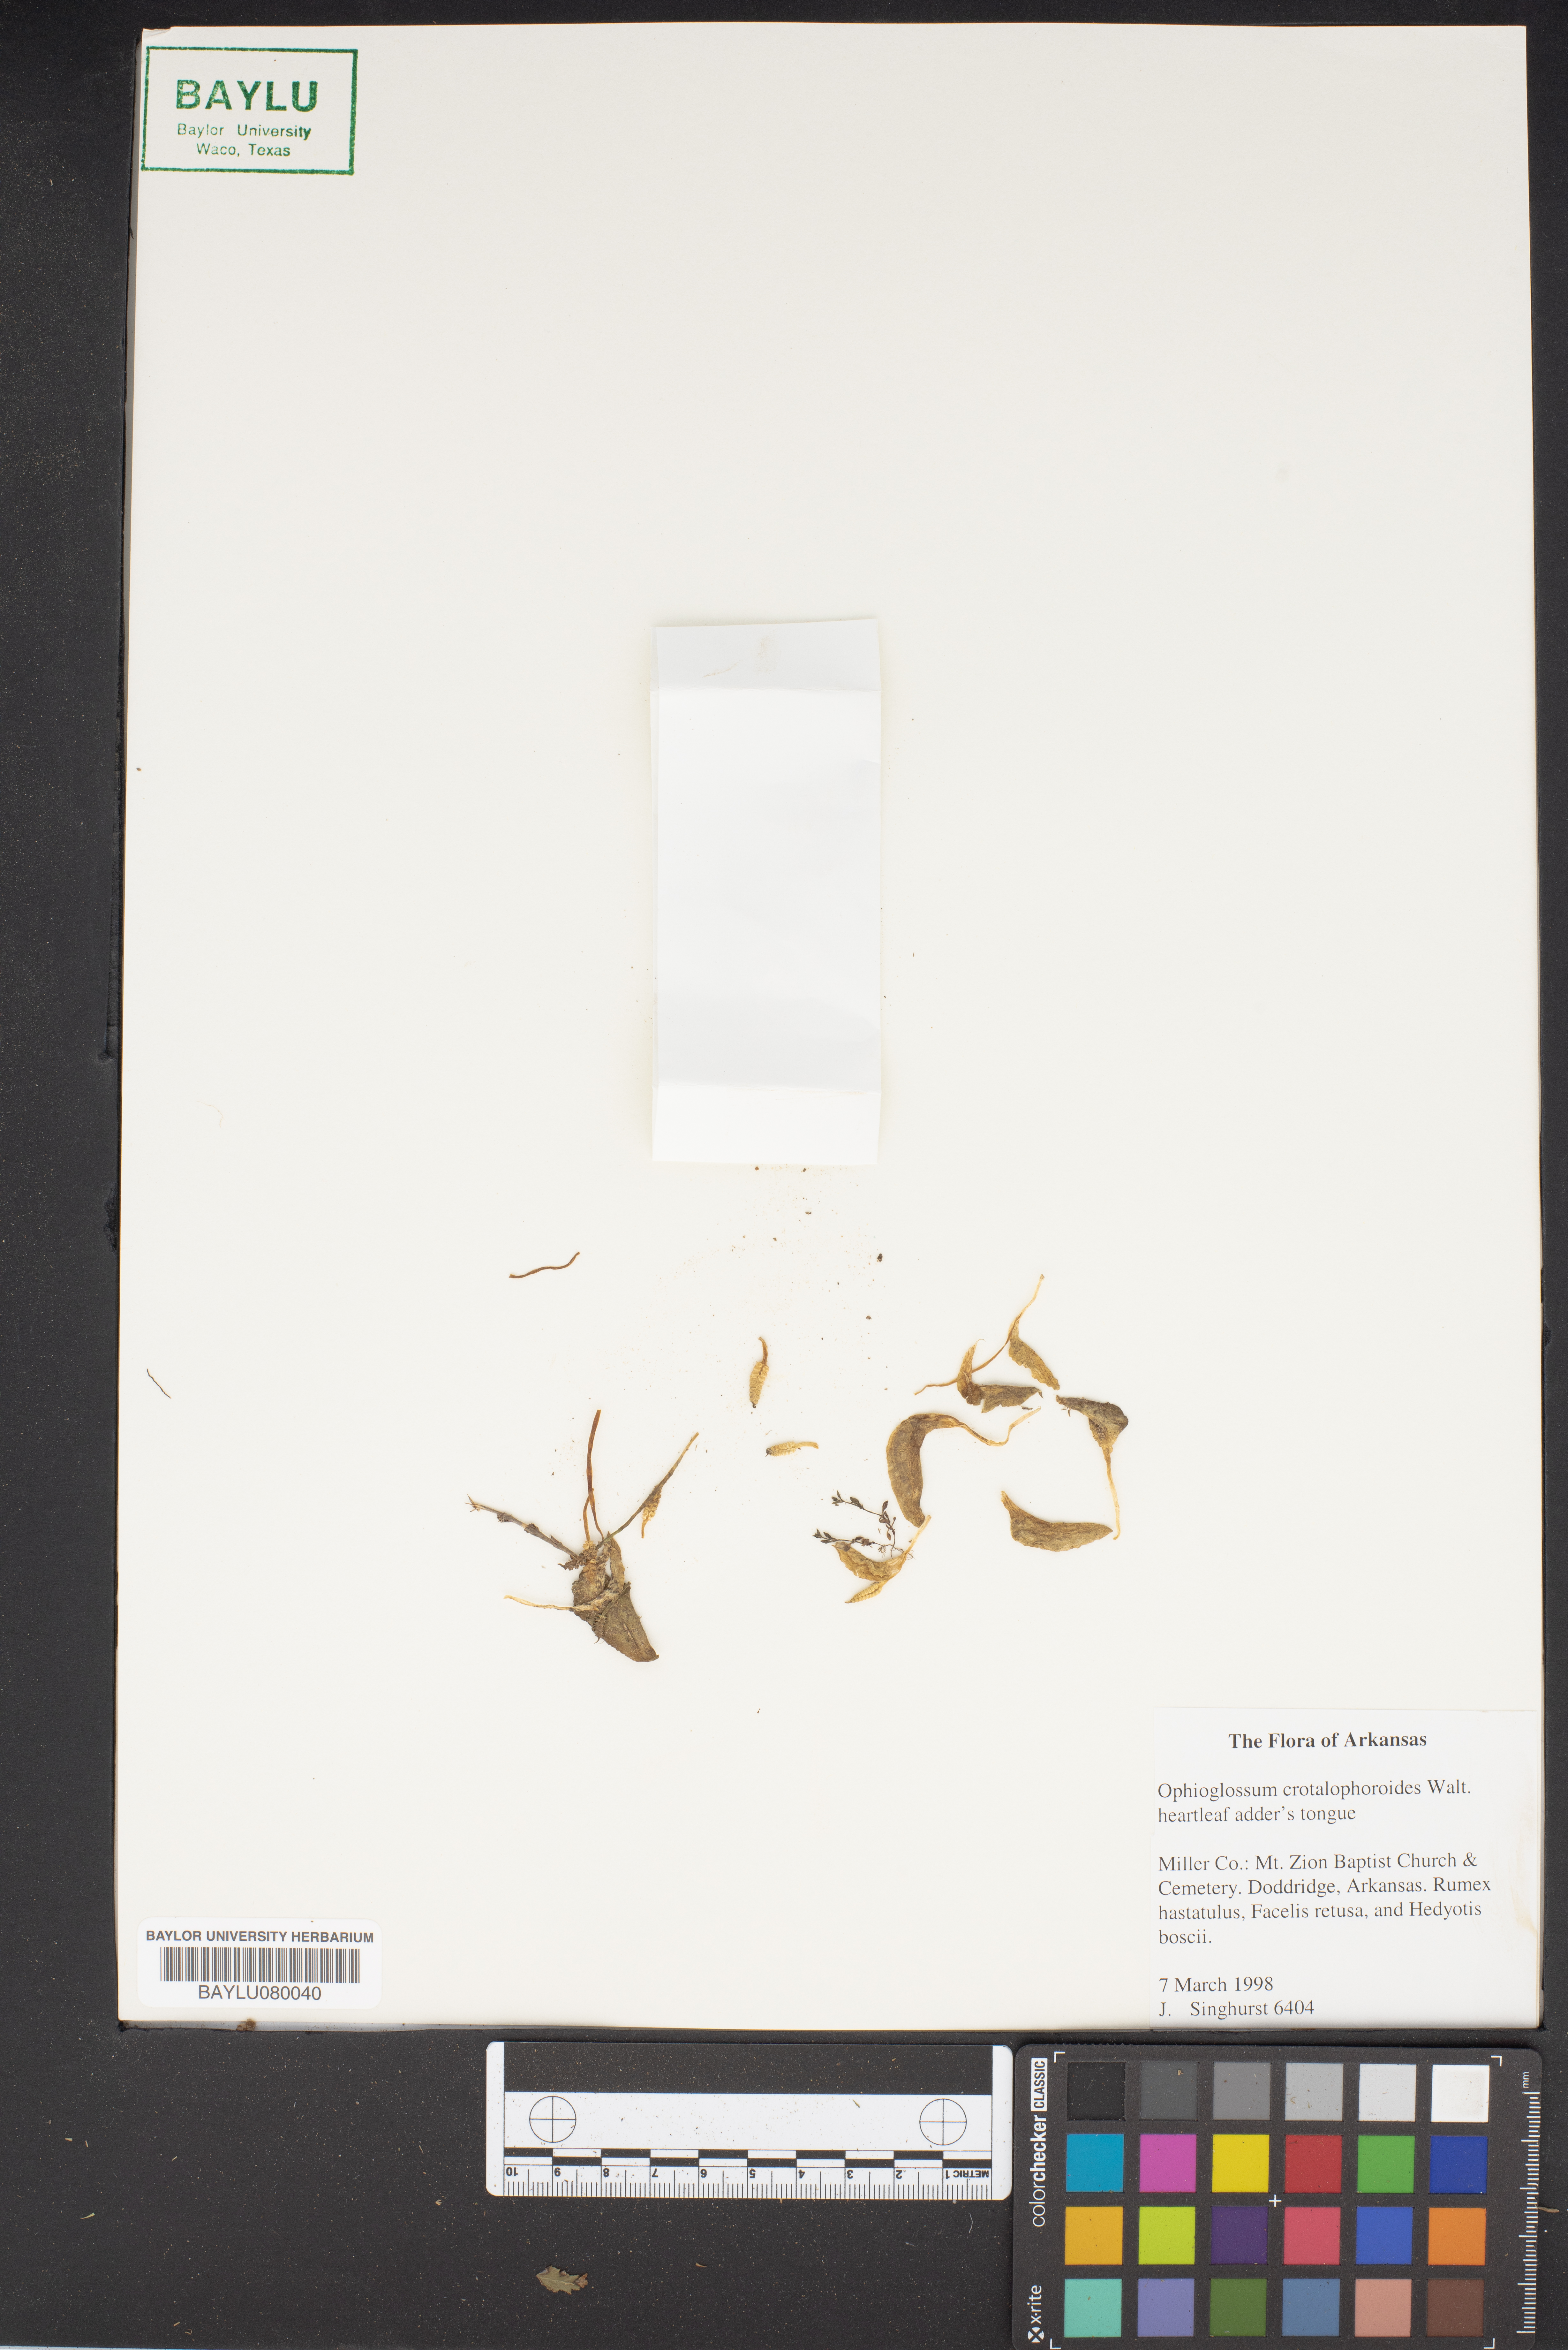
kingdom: Plantae
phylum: Tracheophyta
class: Polypodiopsida
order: Ophioglossales
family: Ophioglossaceae
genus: Ophioglossum
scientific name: Ophioglossum crotalophoroides
